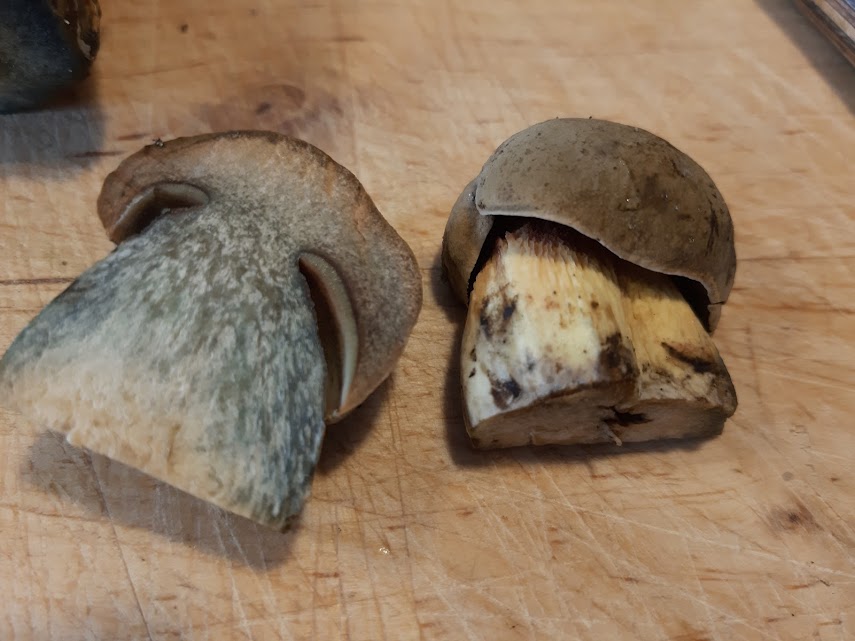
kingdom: Fungi
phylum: Basidiomycota
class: Agaricomycetes
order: Boletales
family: Boletaceae
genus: Suillellus
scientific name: Suillellus luridus
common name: netstokket indigorørhat
